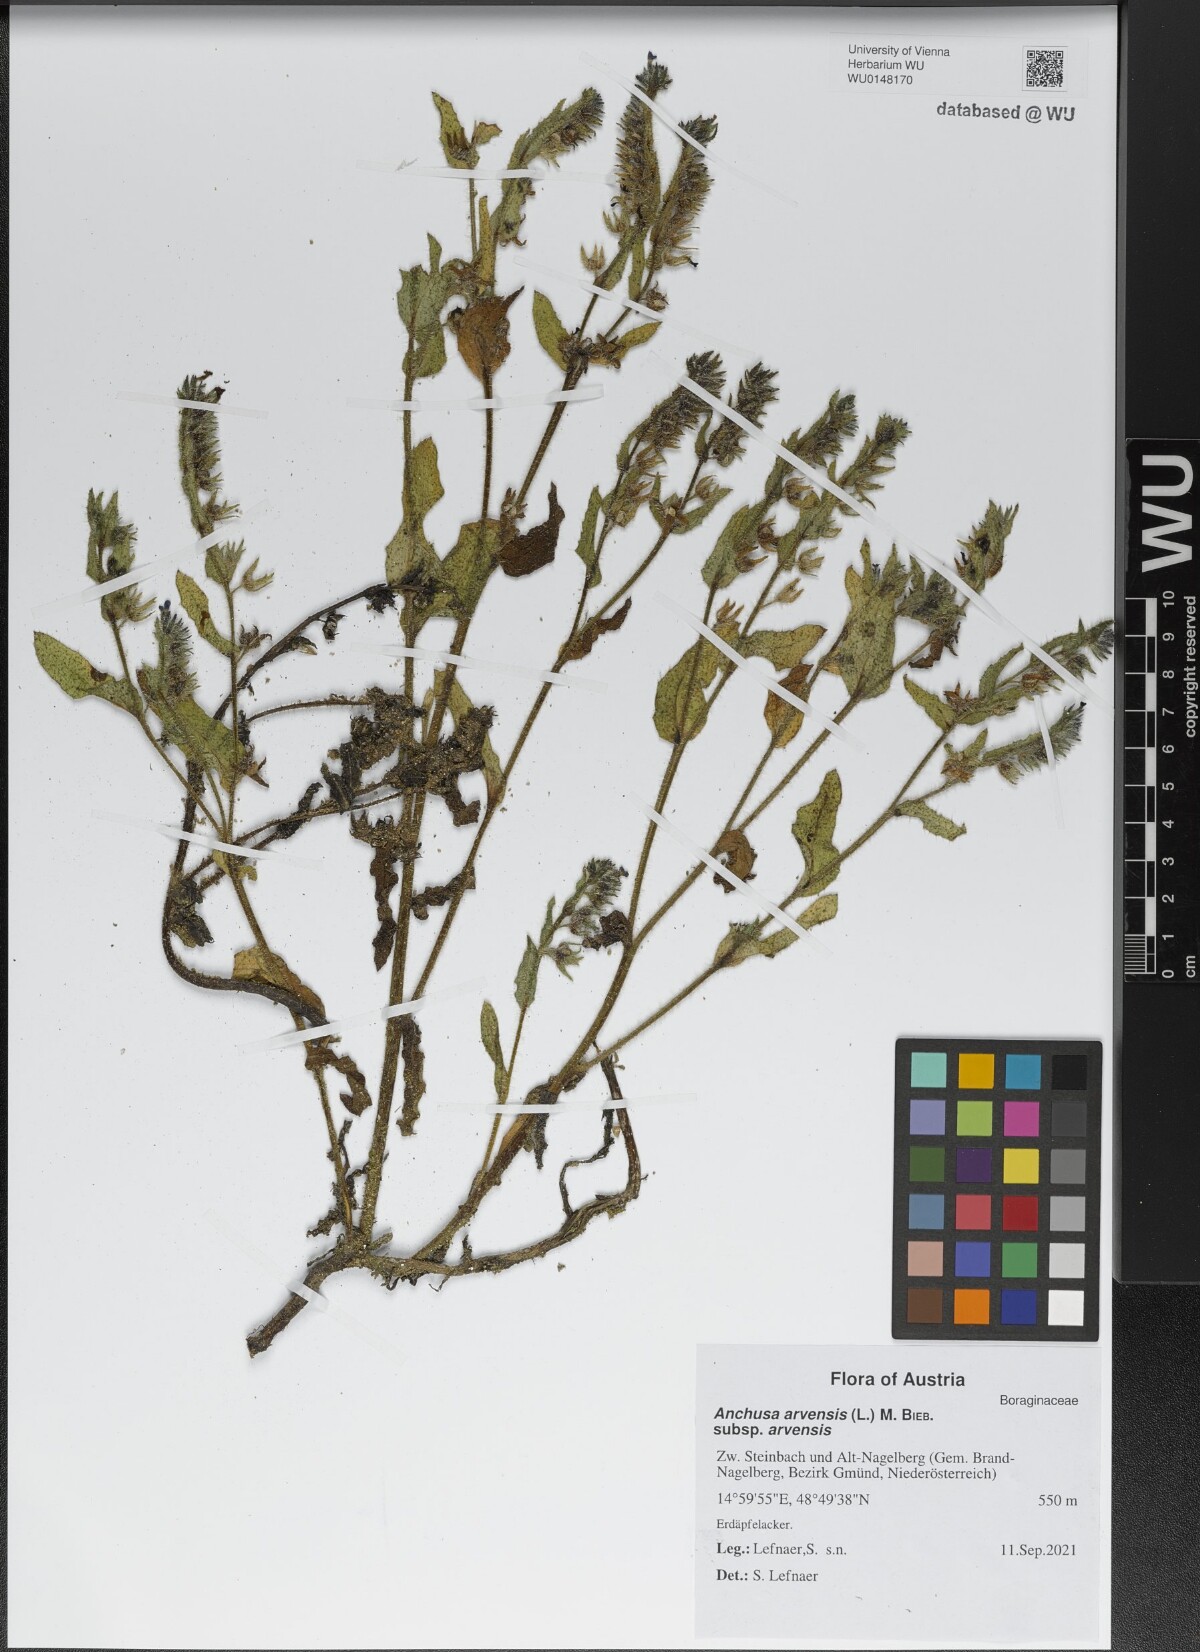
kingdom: Plantae
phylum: Tracheophyta
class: Magnoliopsida
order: Boraginales
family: Boraginaceae
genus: Lycopsis
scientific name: Lycopsis arvensis
